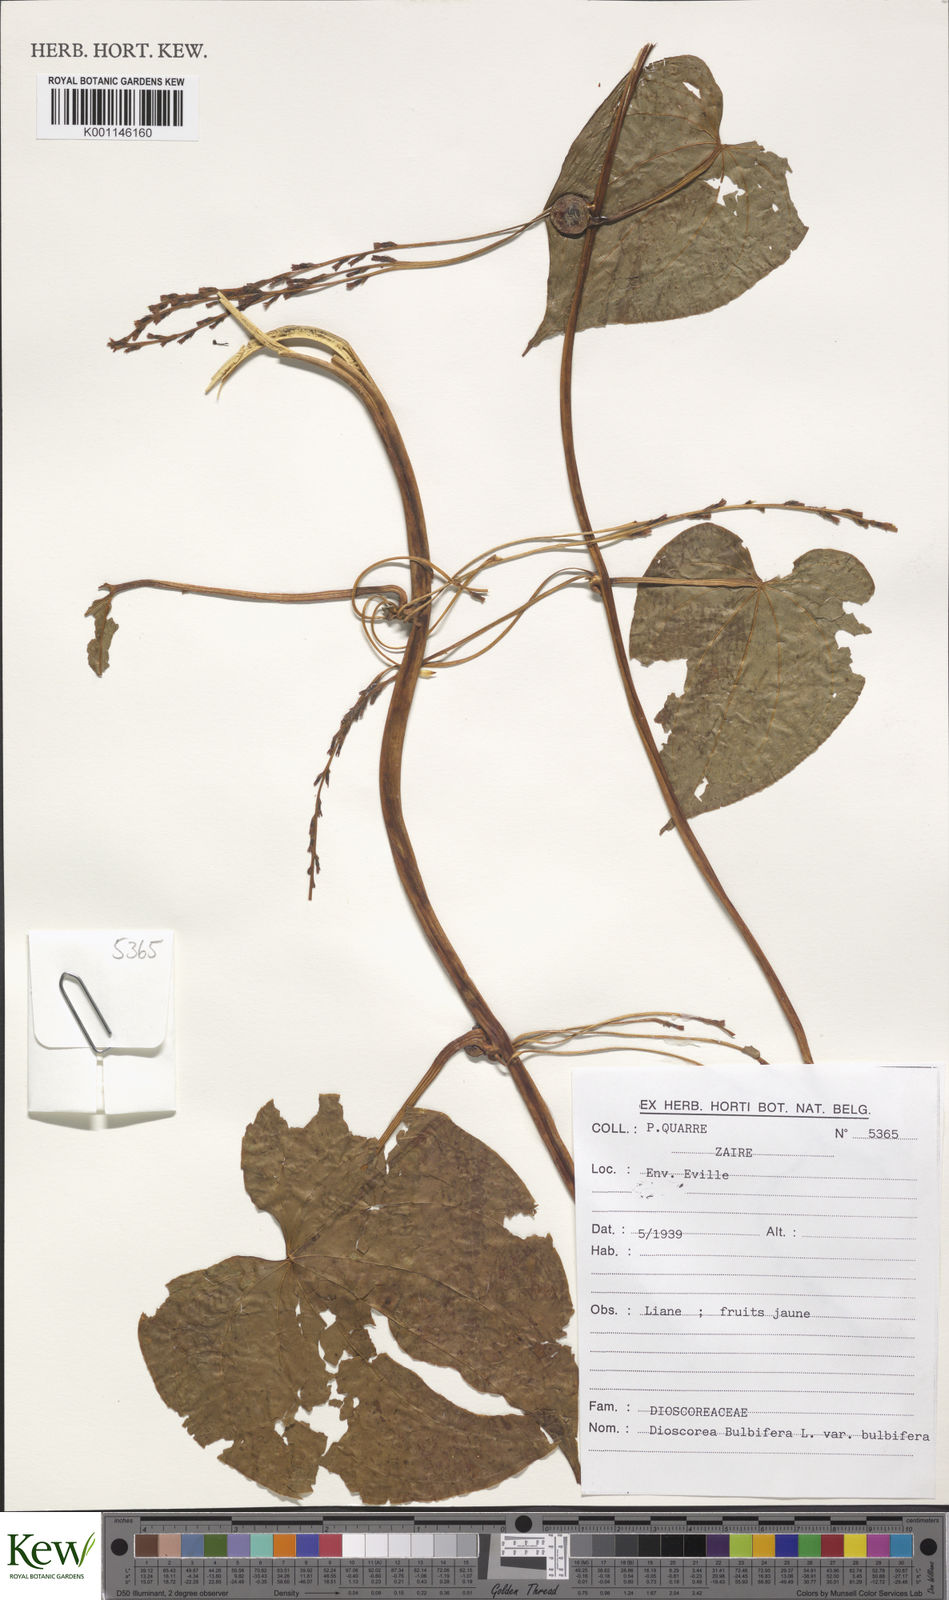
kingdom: Plantae
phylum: Tracheophyta
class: Liliopsida
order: Dioscoreales
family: Dioscoreaceae
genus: Dioscorea
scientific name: Dioscorea bulbifera
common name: Air yam
